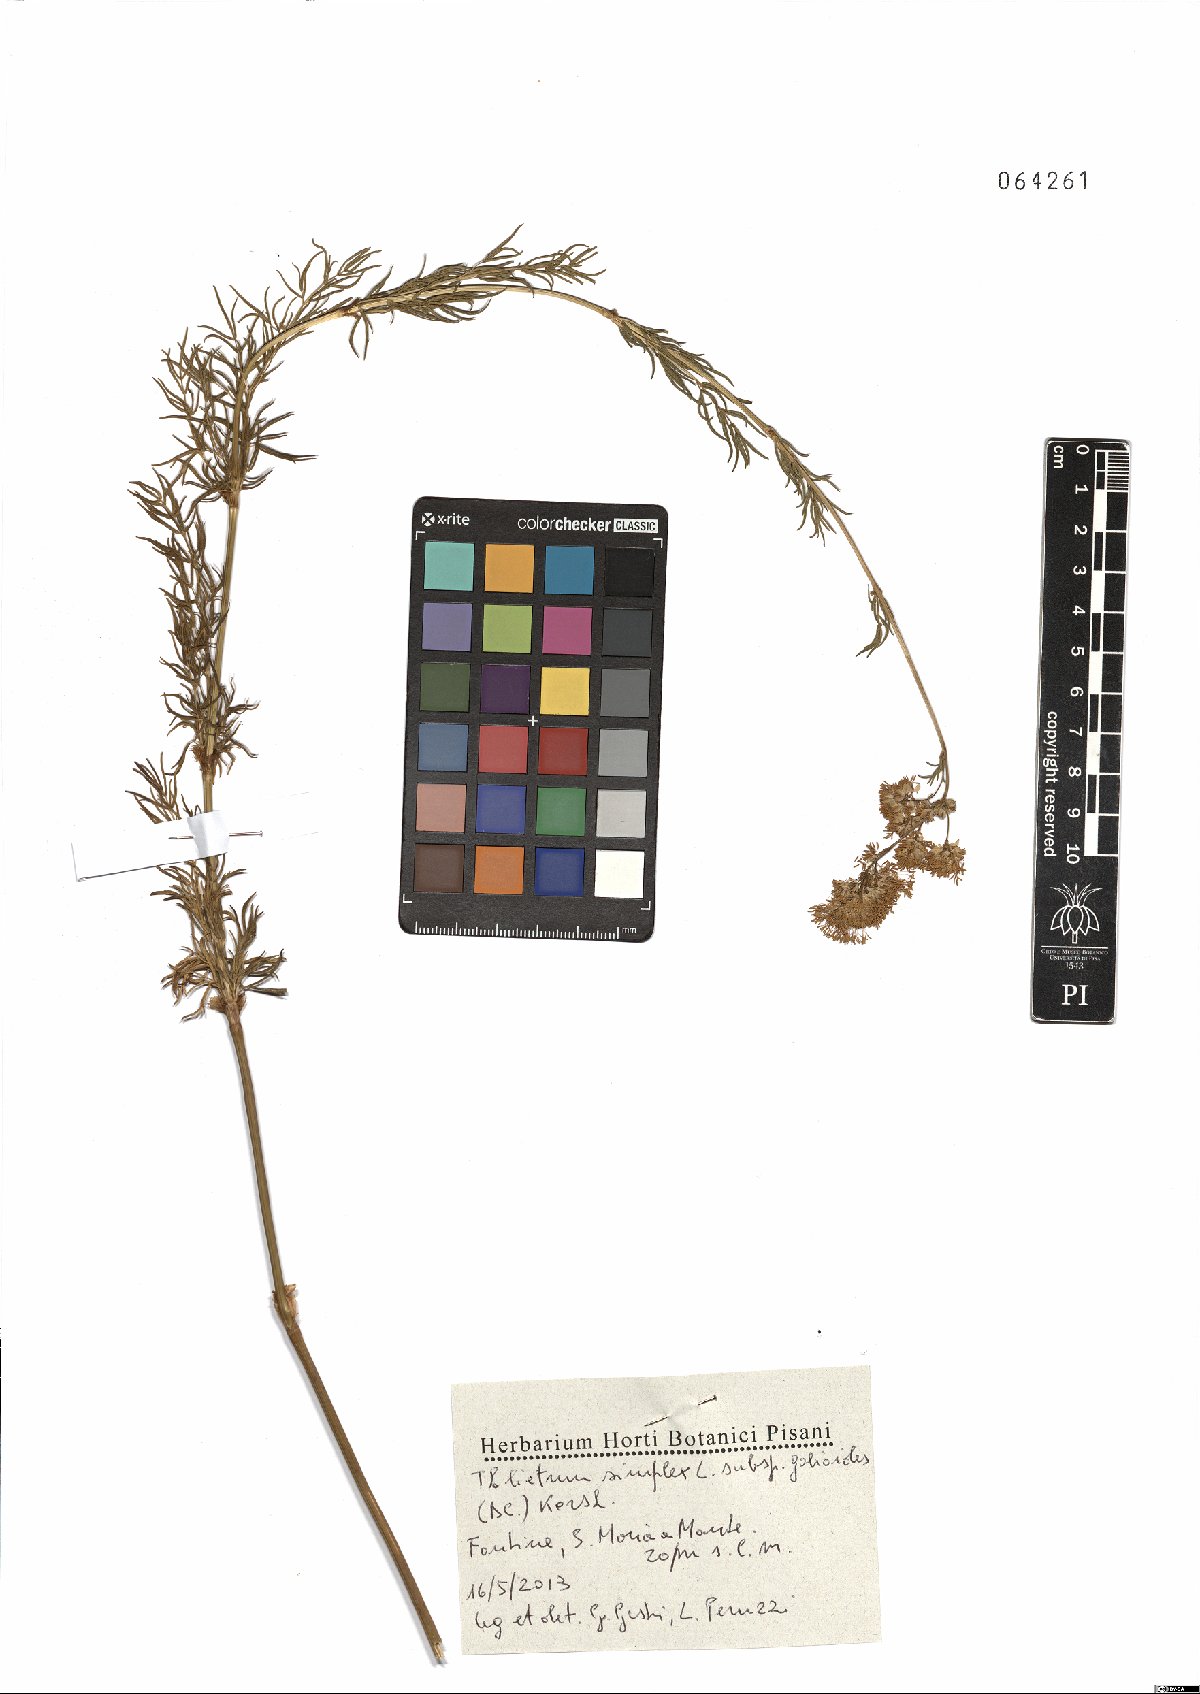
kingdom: Plantae
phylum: Tracheophyta
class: Magnoliopsida
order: Ranunculales
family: Ranunculaceae
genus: Thalictrum
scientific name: Thalictrum simplex
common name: Small meadow-rue
